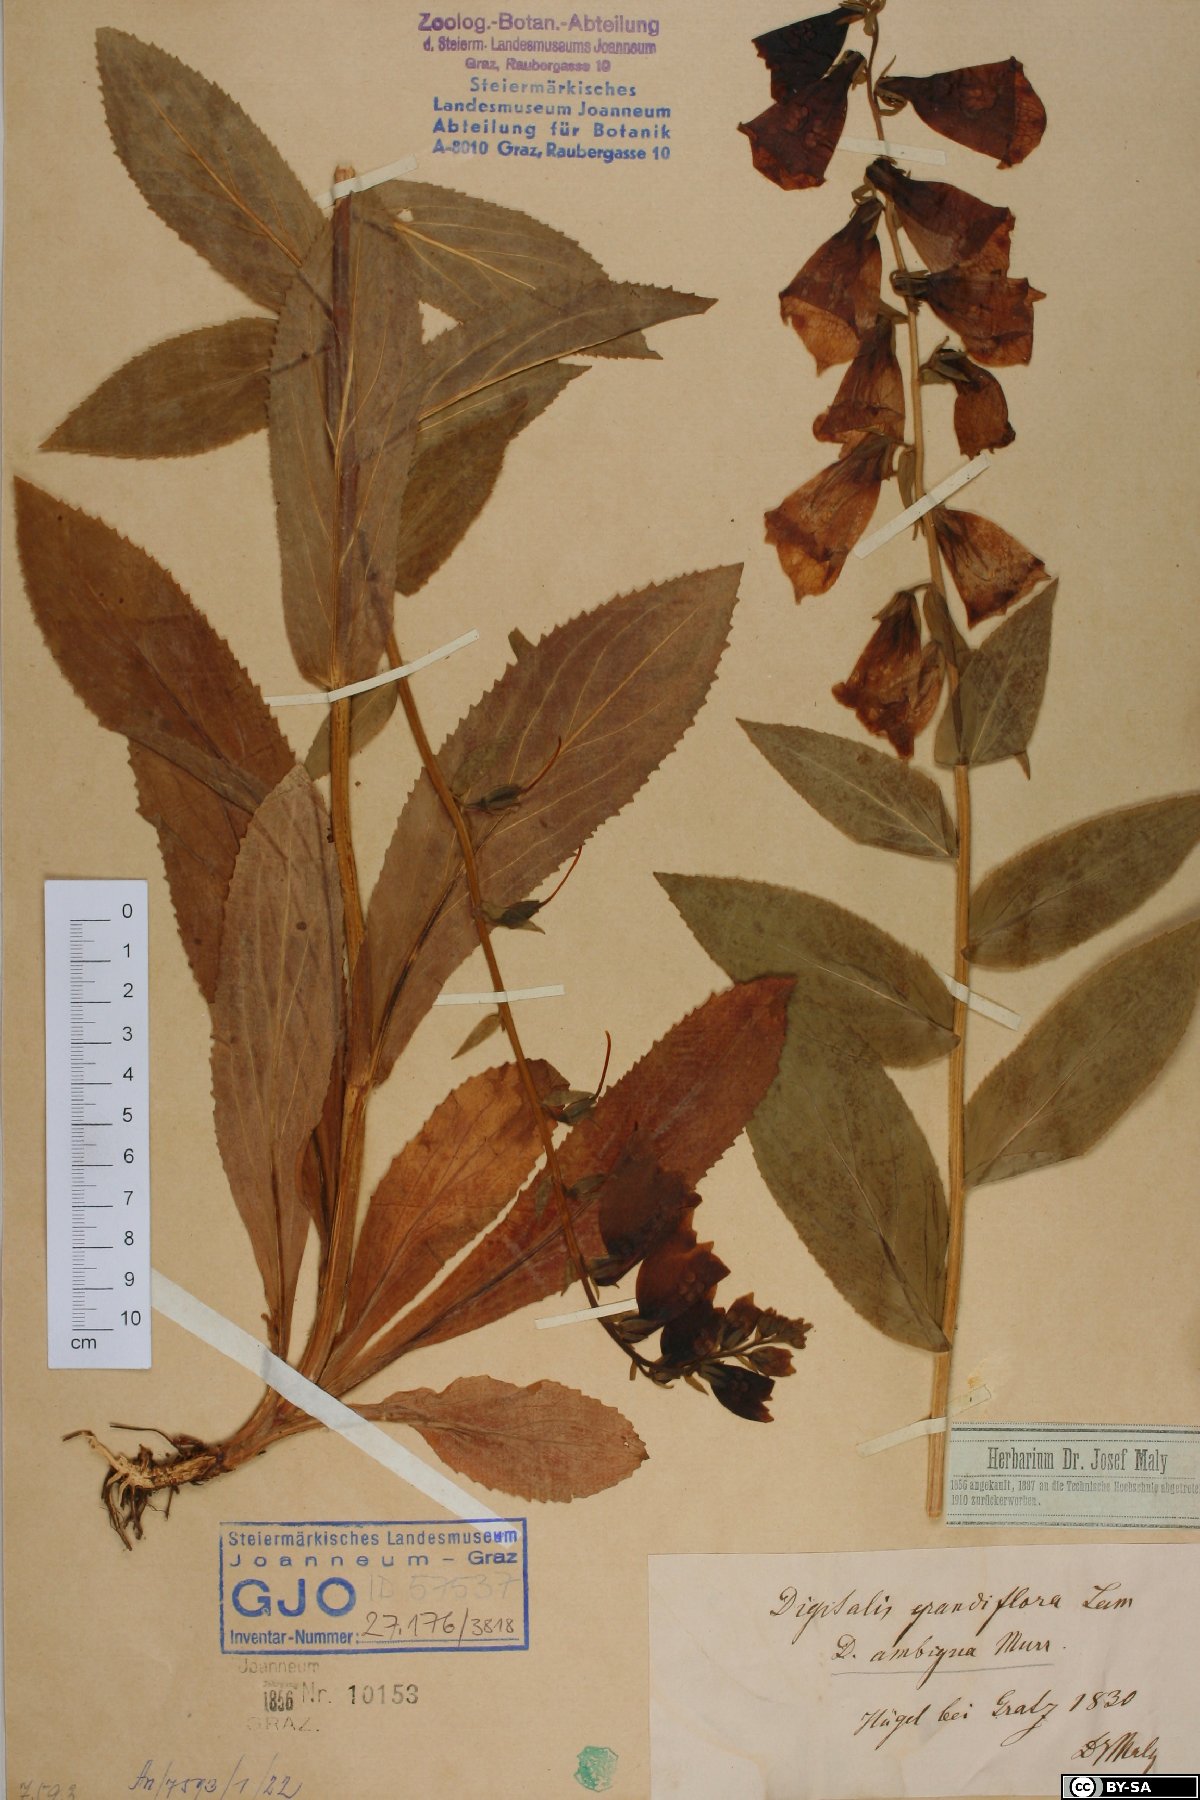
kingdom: Plantae
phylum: Tracheophyta
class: Magnoliopsida
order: Lamiales
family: Plantaginaceae
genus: Digitalis
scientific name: Digitalis grandiflora
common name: Yellow foxglove
